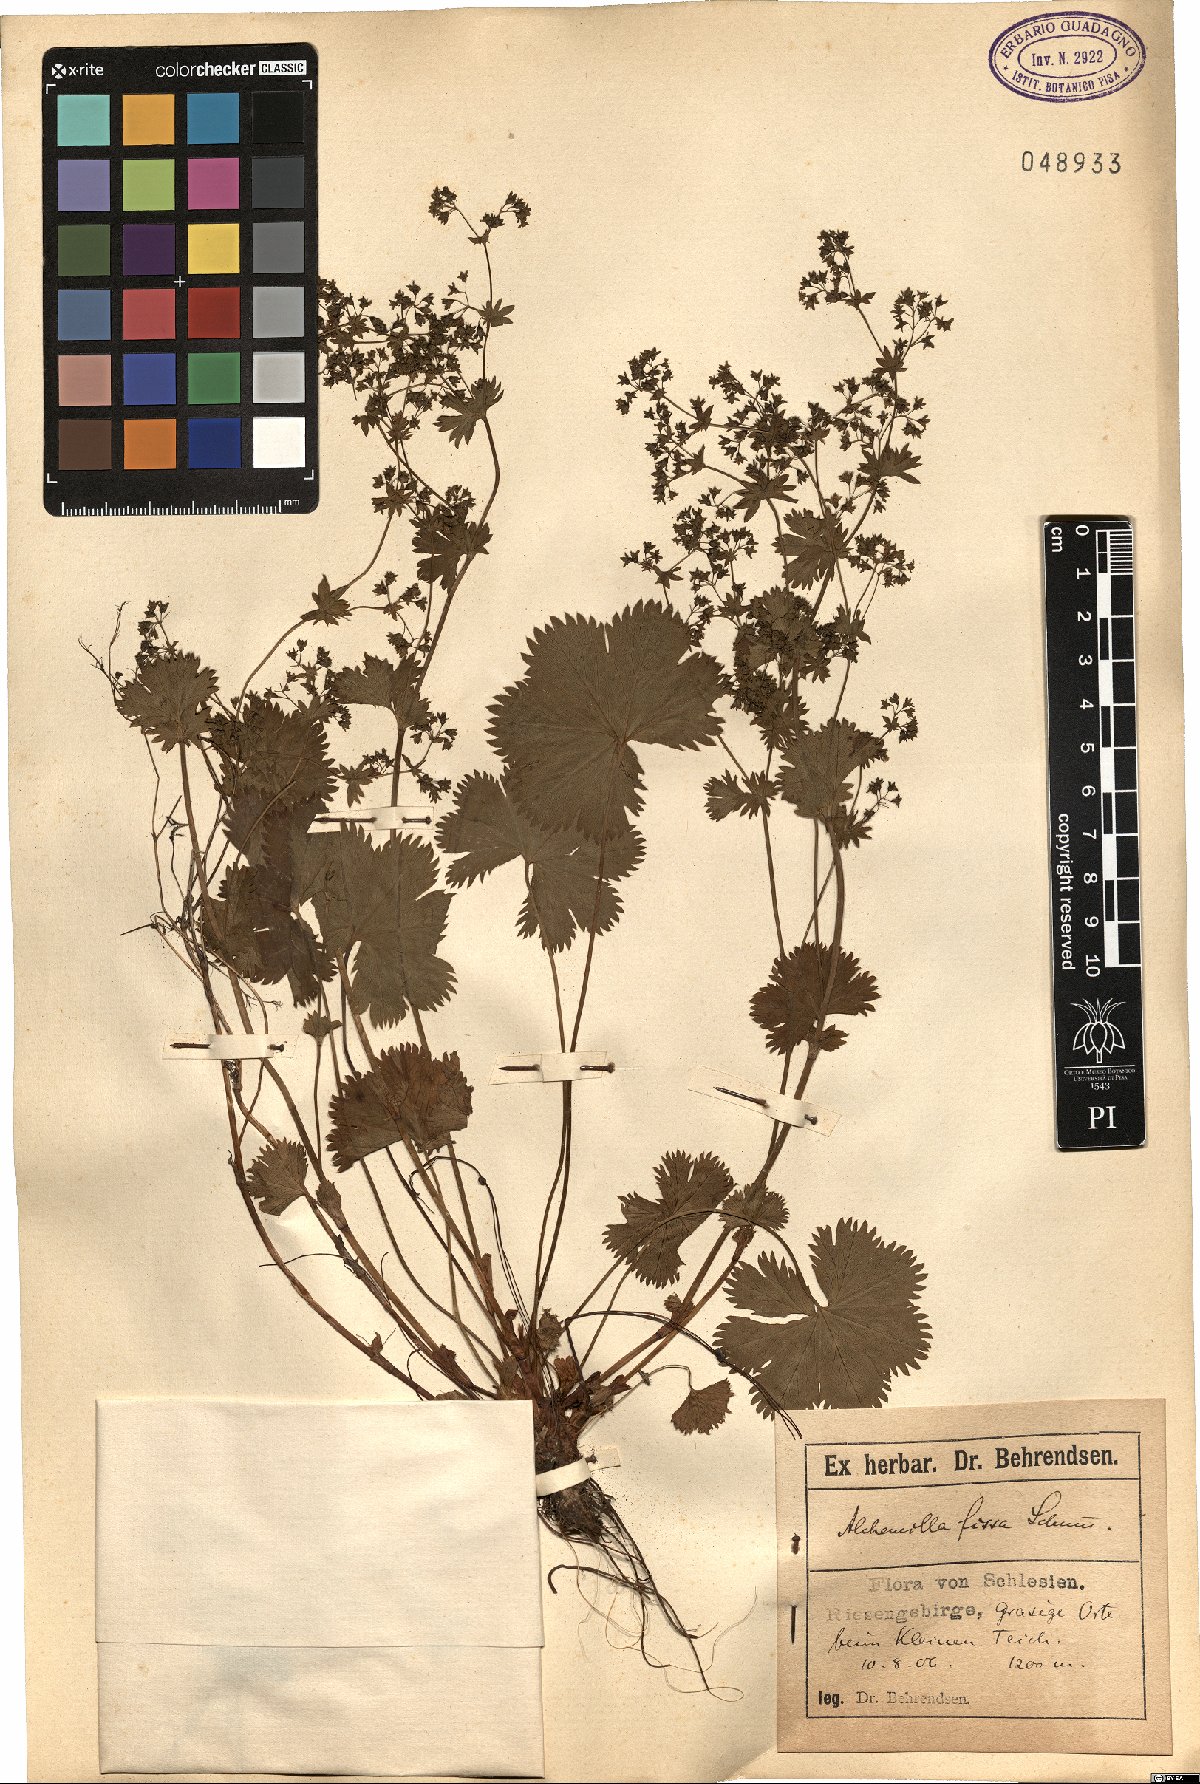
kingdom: Plantae
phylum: Tracheophyta
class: Magnoliopsida
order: Rosales
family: Rosaceae
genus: Alchemilla
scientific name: Alchemilla fissa
